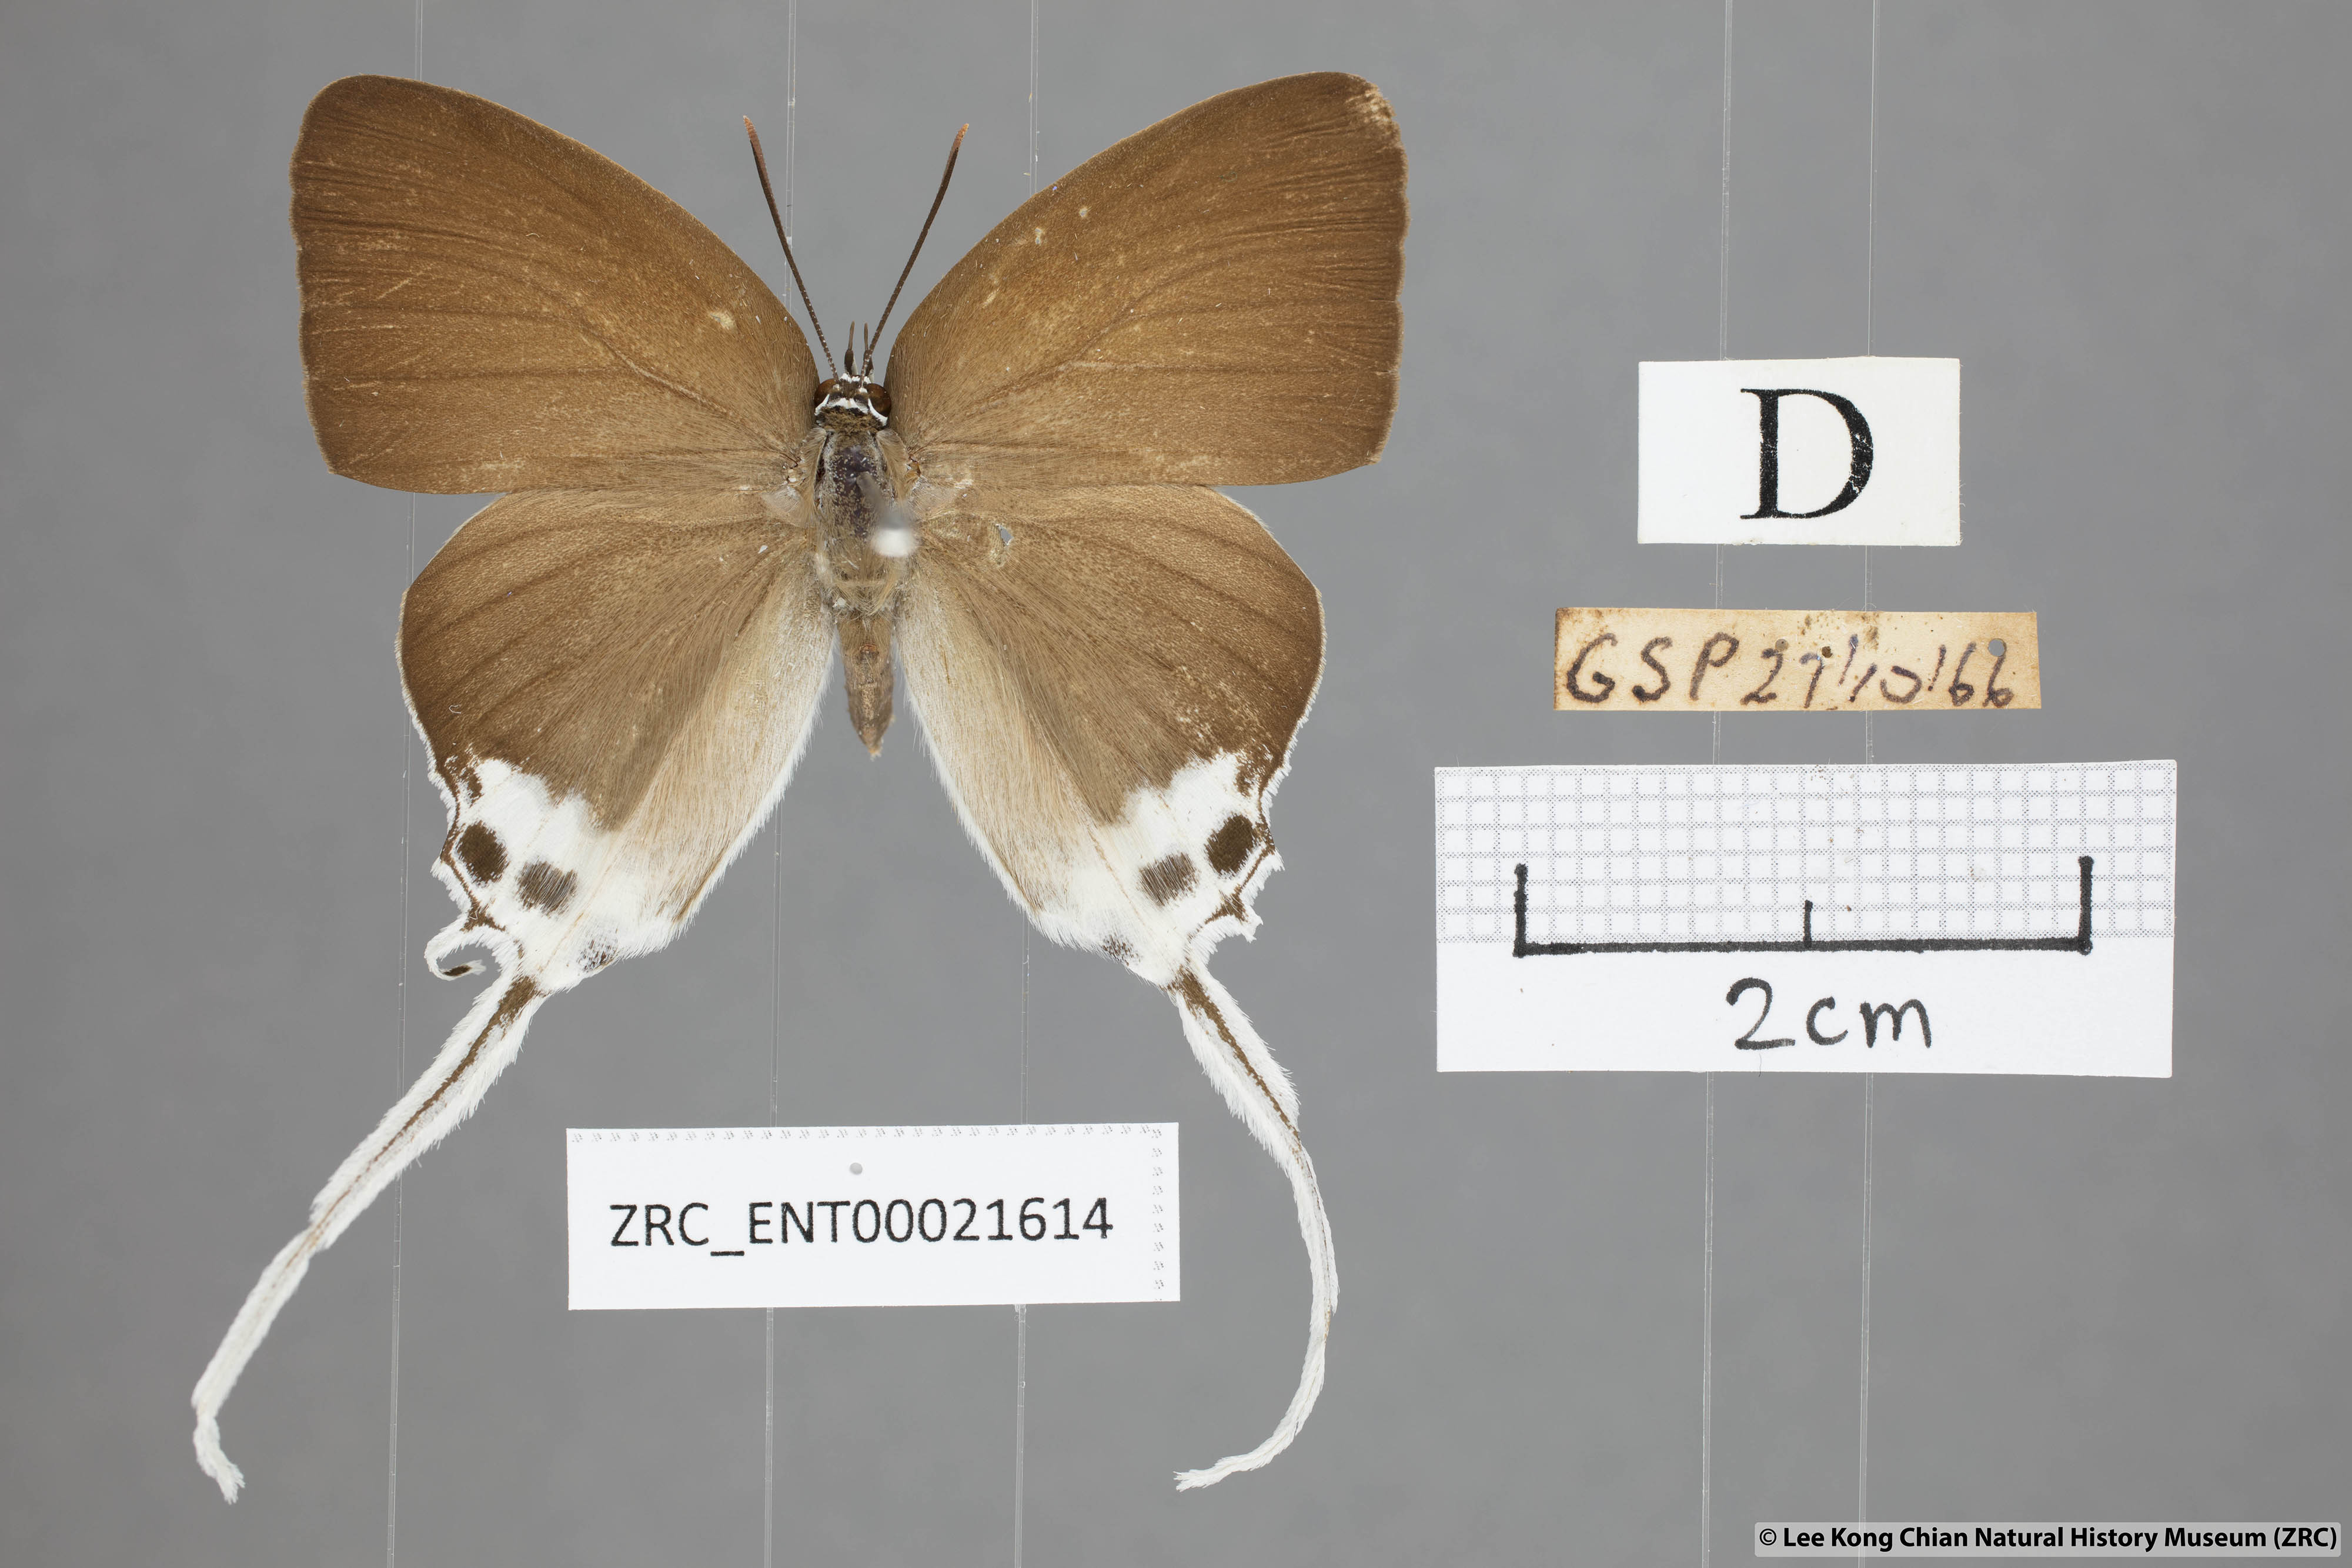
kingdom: Animalia
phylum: Arthropoda
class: Insecta
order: Lepidoptera
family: Lycaenidae
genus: Jacoona
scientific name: Jacoona anasuja
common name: Great imperial
